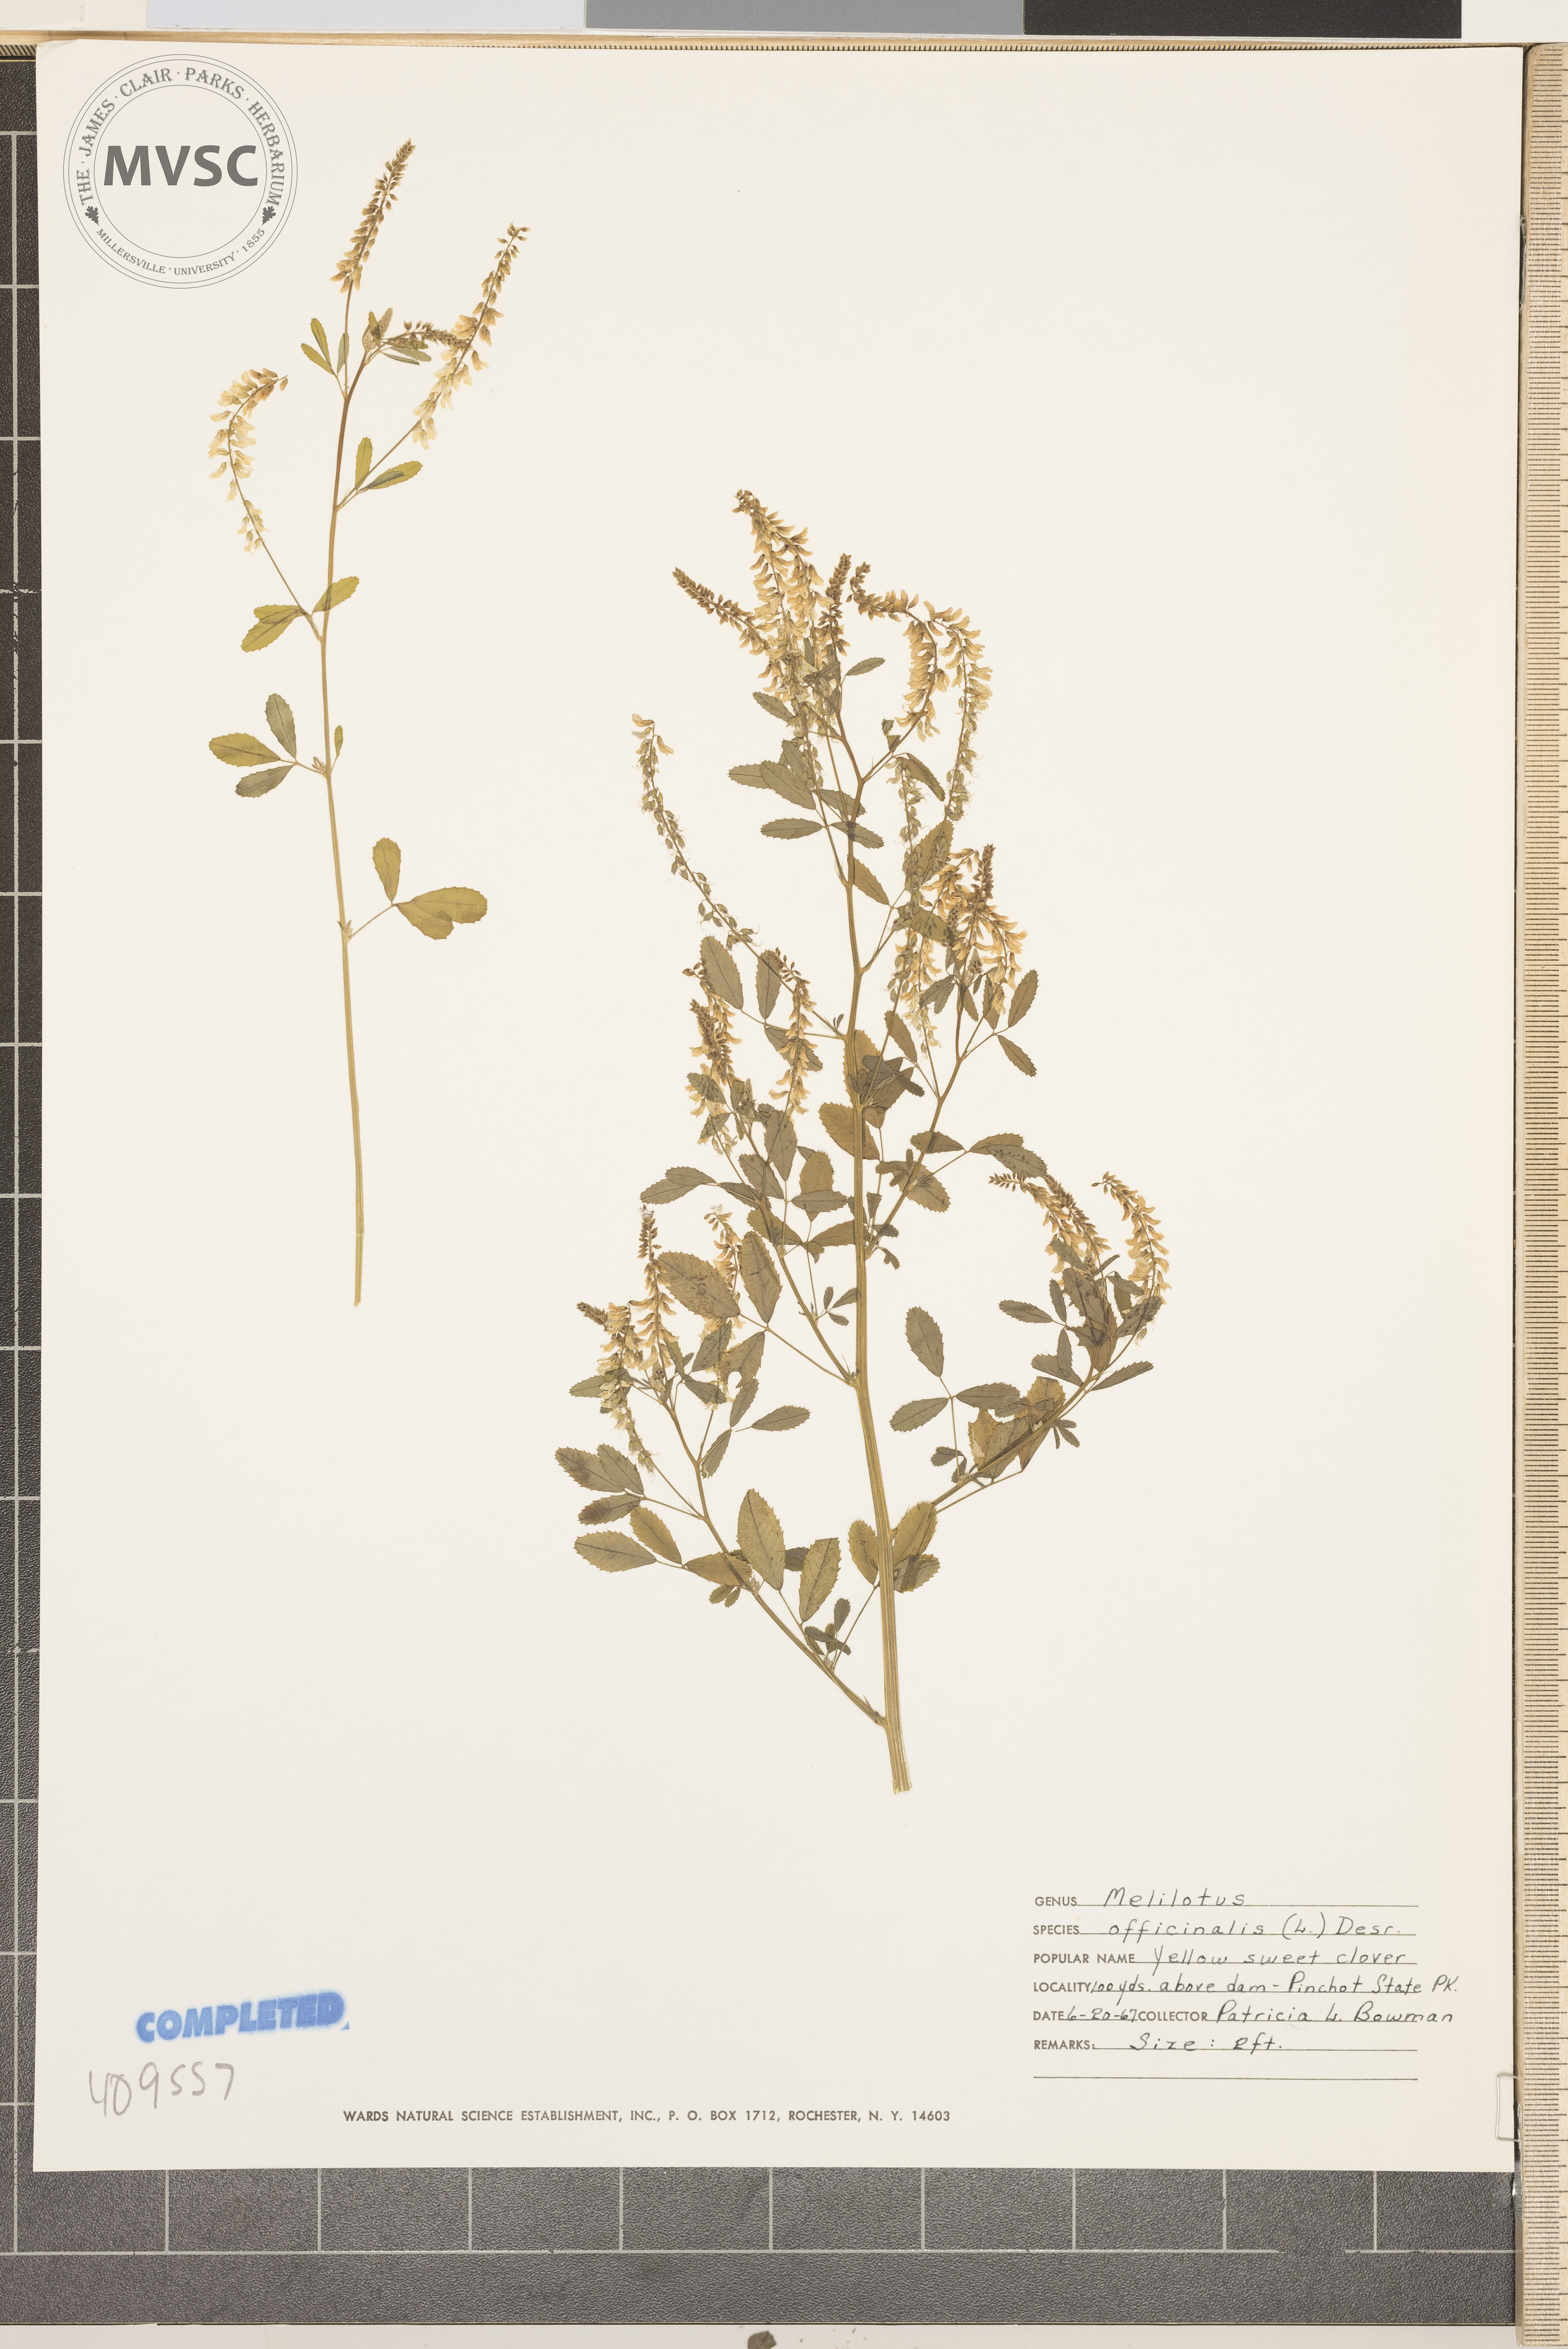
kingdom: Plantae
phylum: Tracheophyta
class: Magnoliopsida
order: Fabales
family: Fabaceae
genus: Melilotus
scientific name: Melilotus officinalis
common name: Sweetclover
